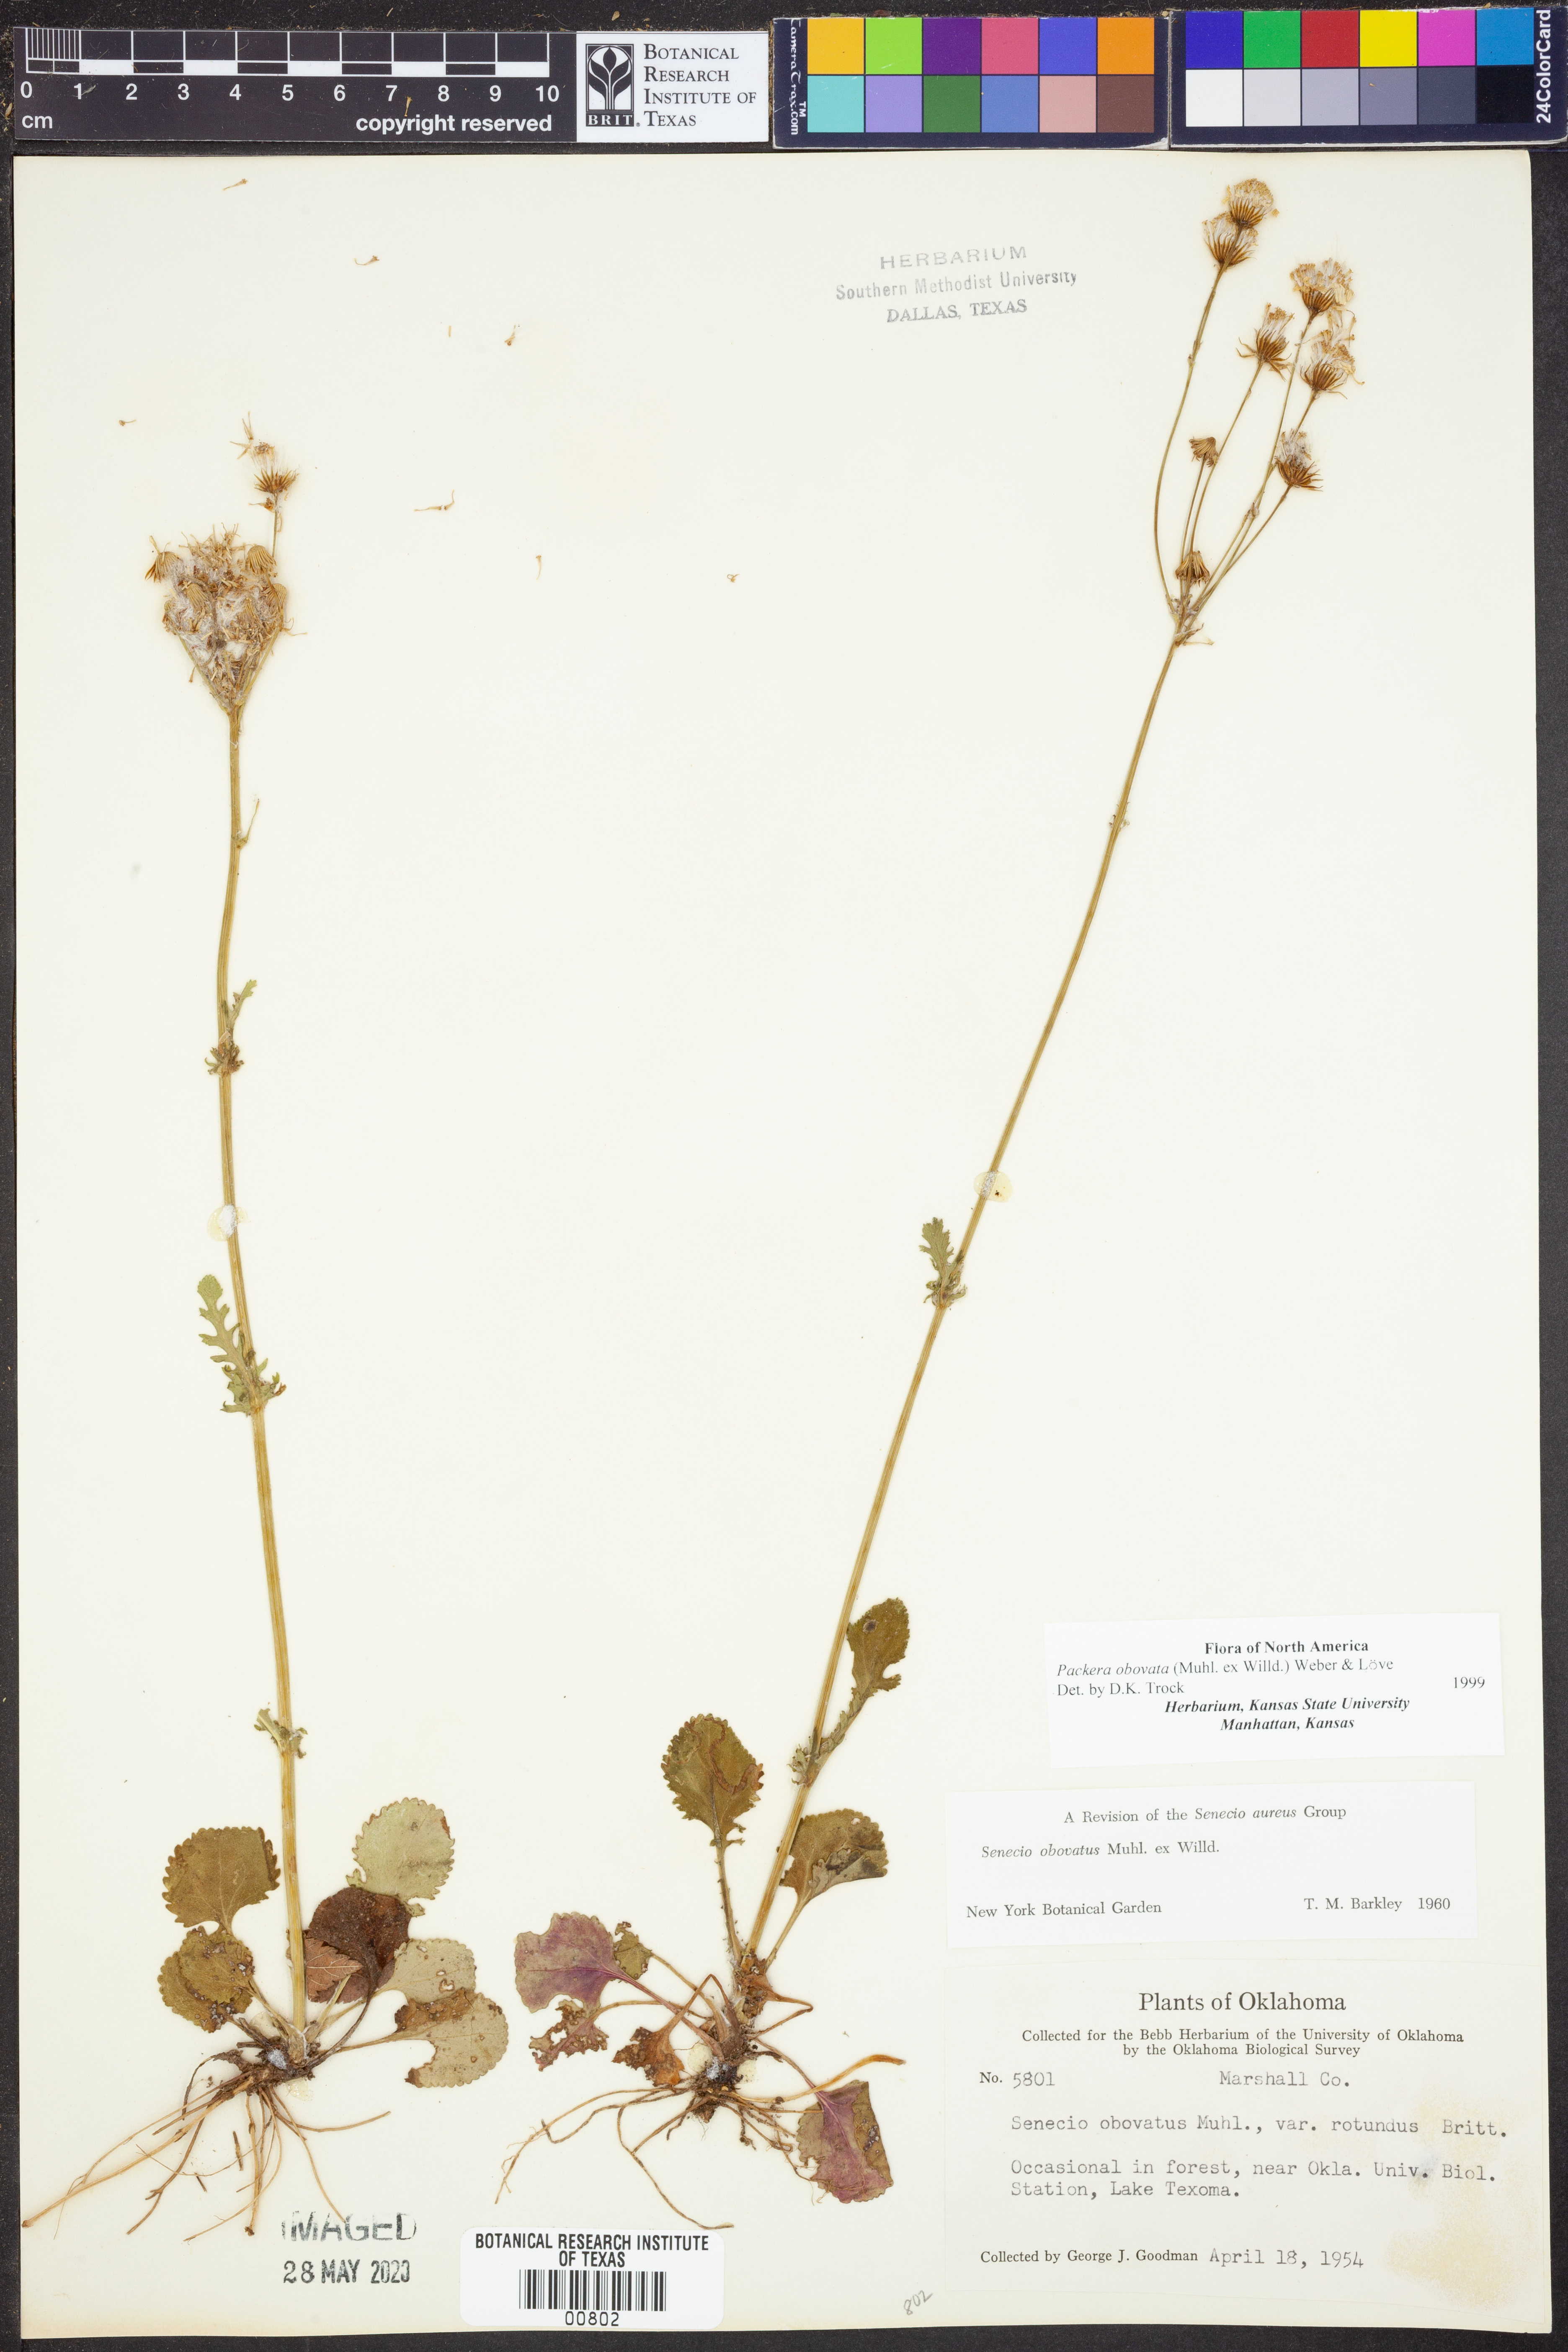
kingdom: Plantae
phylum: Tracheophyta
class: Magnoliopsida
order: Asterales
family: Asteraceae
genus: Packera
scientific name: Packera obovata
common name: Round-leaf ragwort
